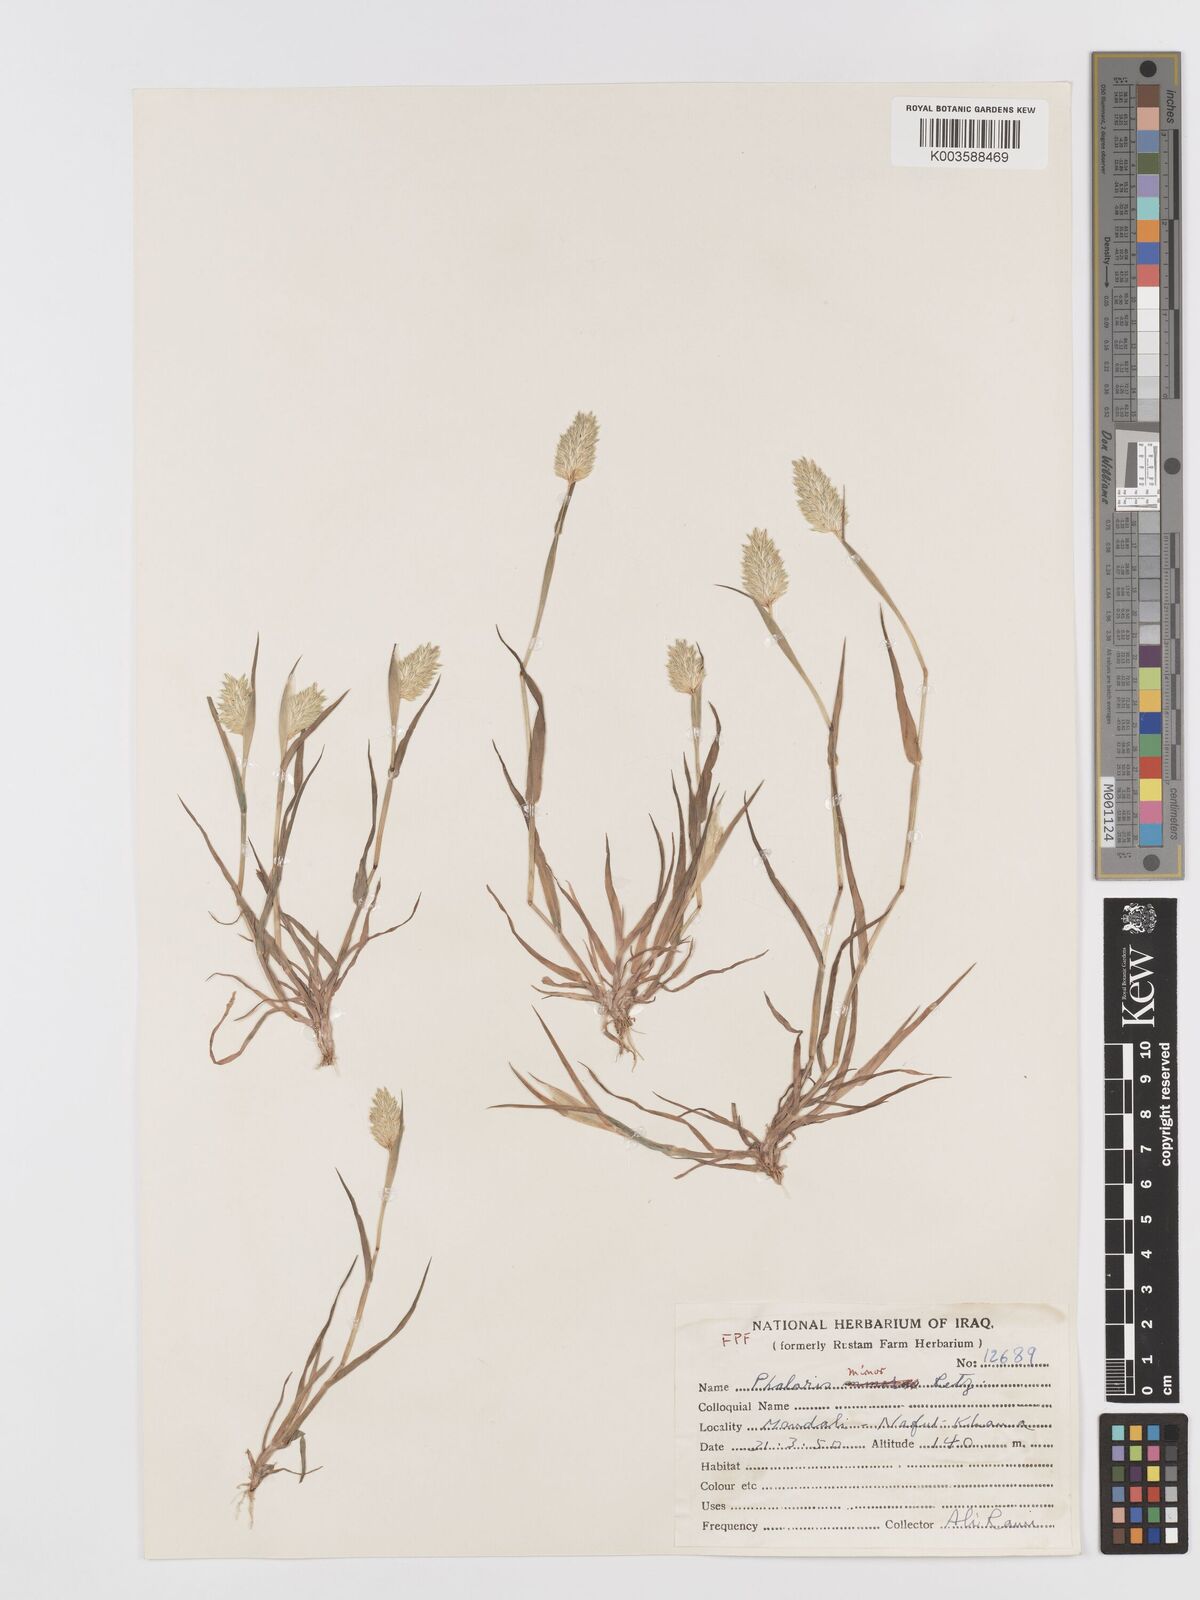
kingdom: Plantae
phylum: Tracheophyta
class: Liliopsida
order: Poales
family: Poaceae
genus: Phalaris
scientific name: Phalaris minor
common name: Littleseed canarygrass
